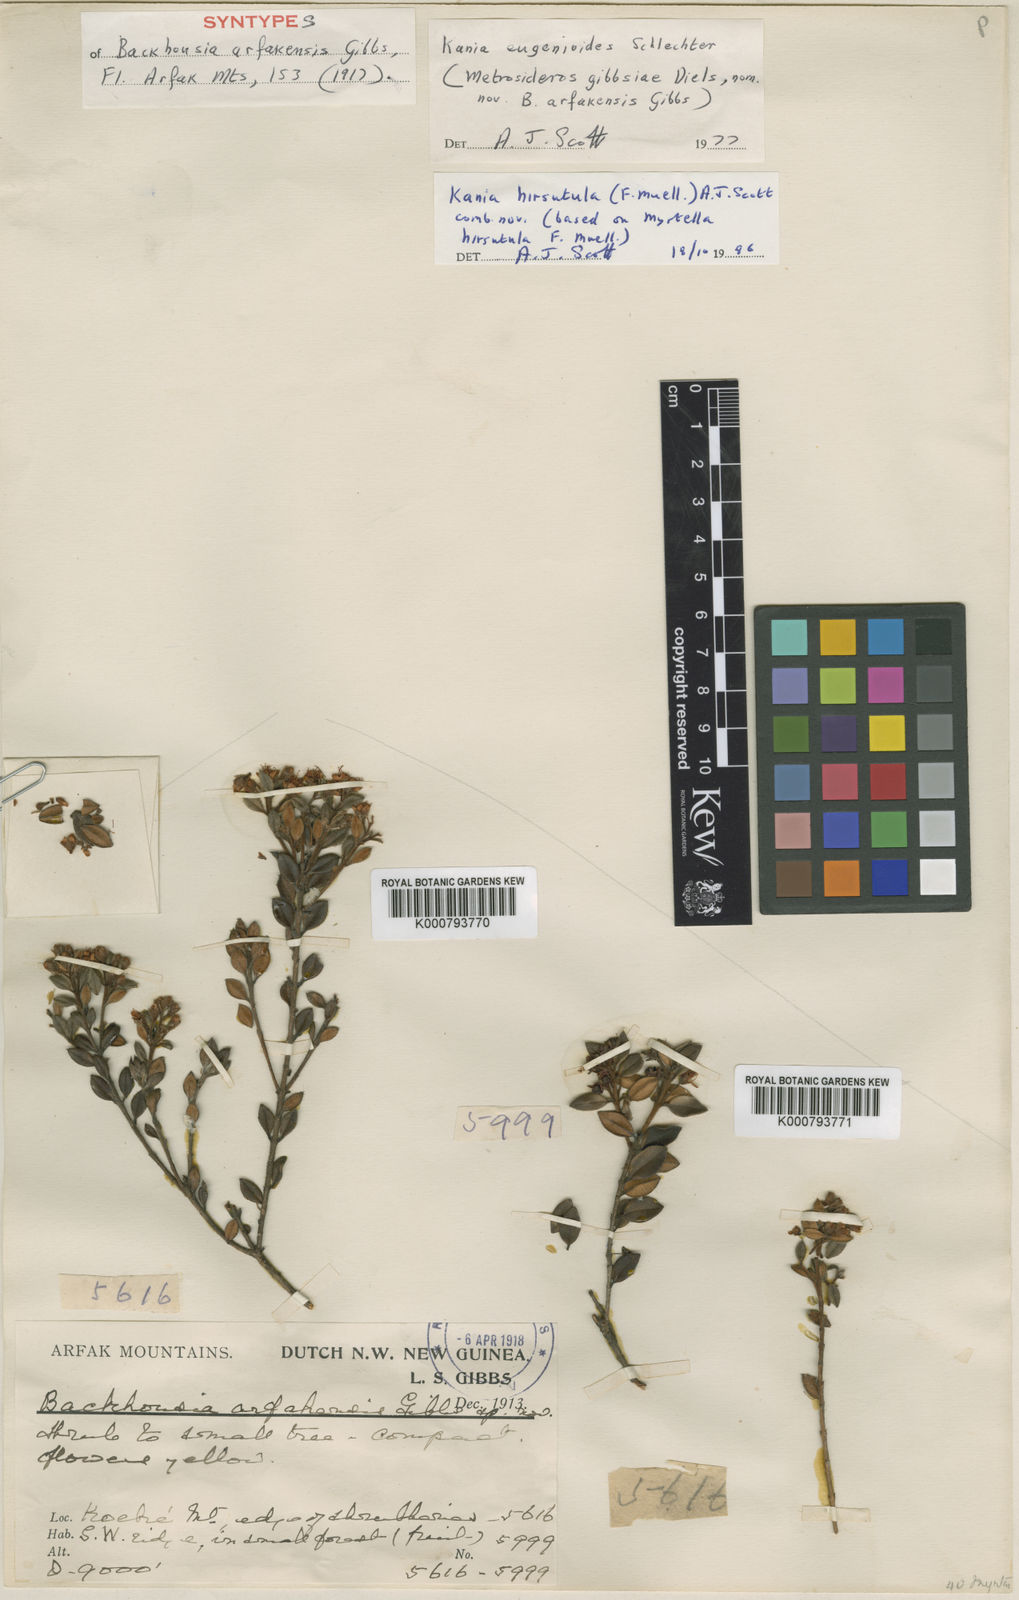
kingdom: Plantae
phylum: Tracheophyta
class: Magnoliopsida
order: Myrtales
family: Myrtaceae
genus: Kania
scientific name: Kania
